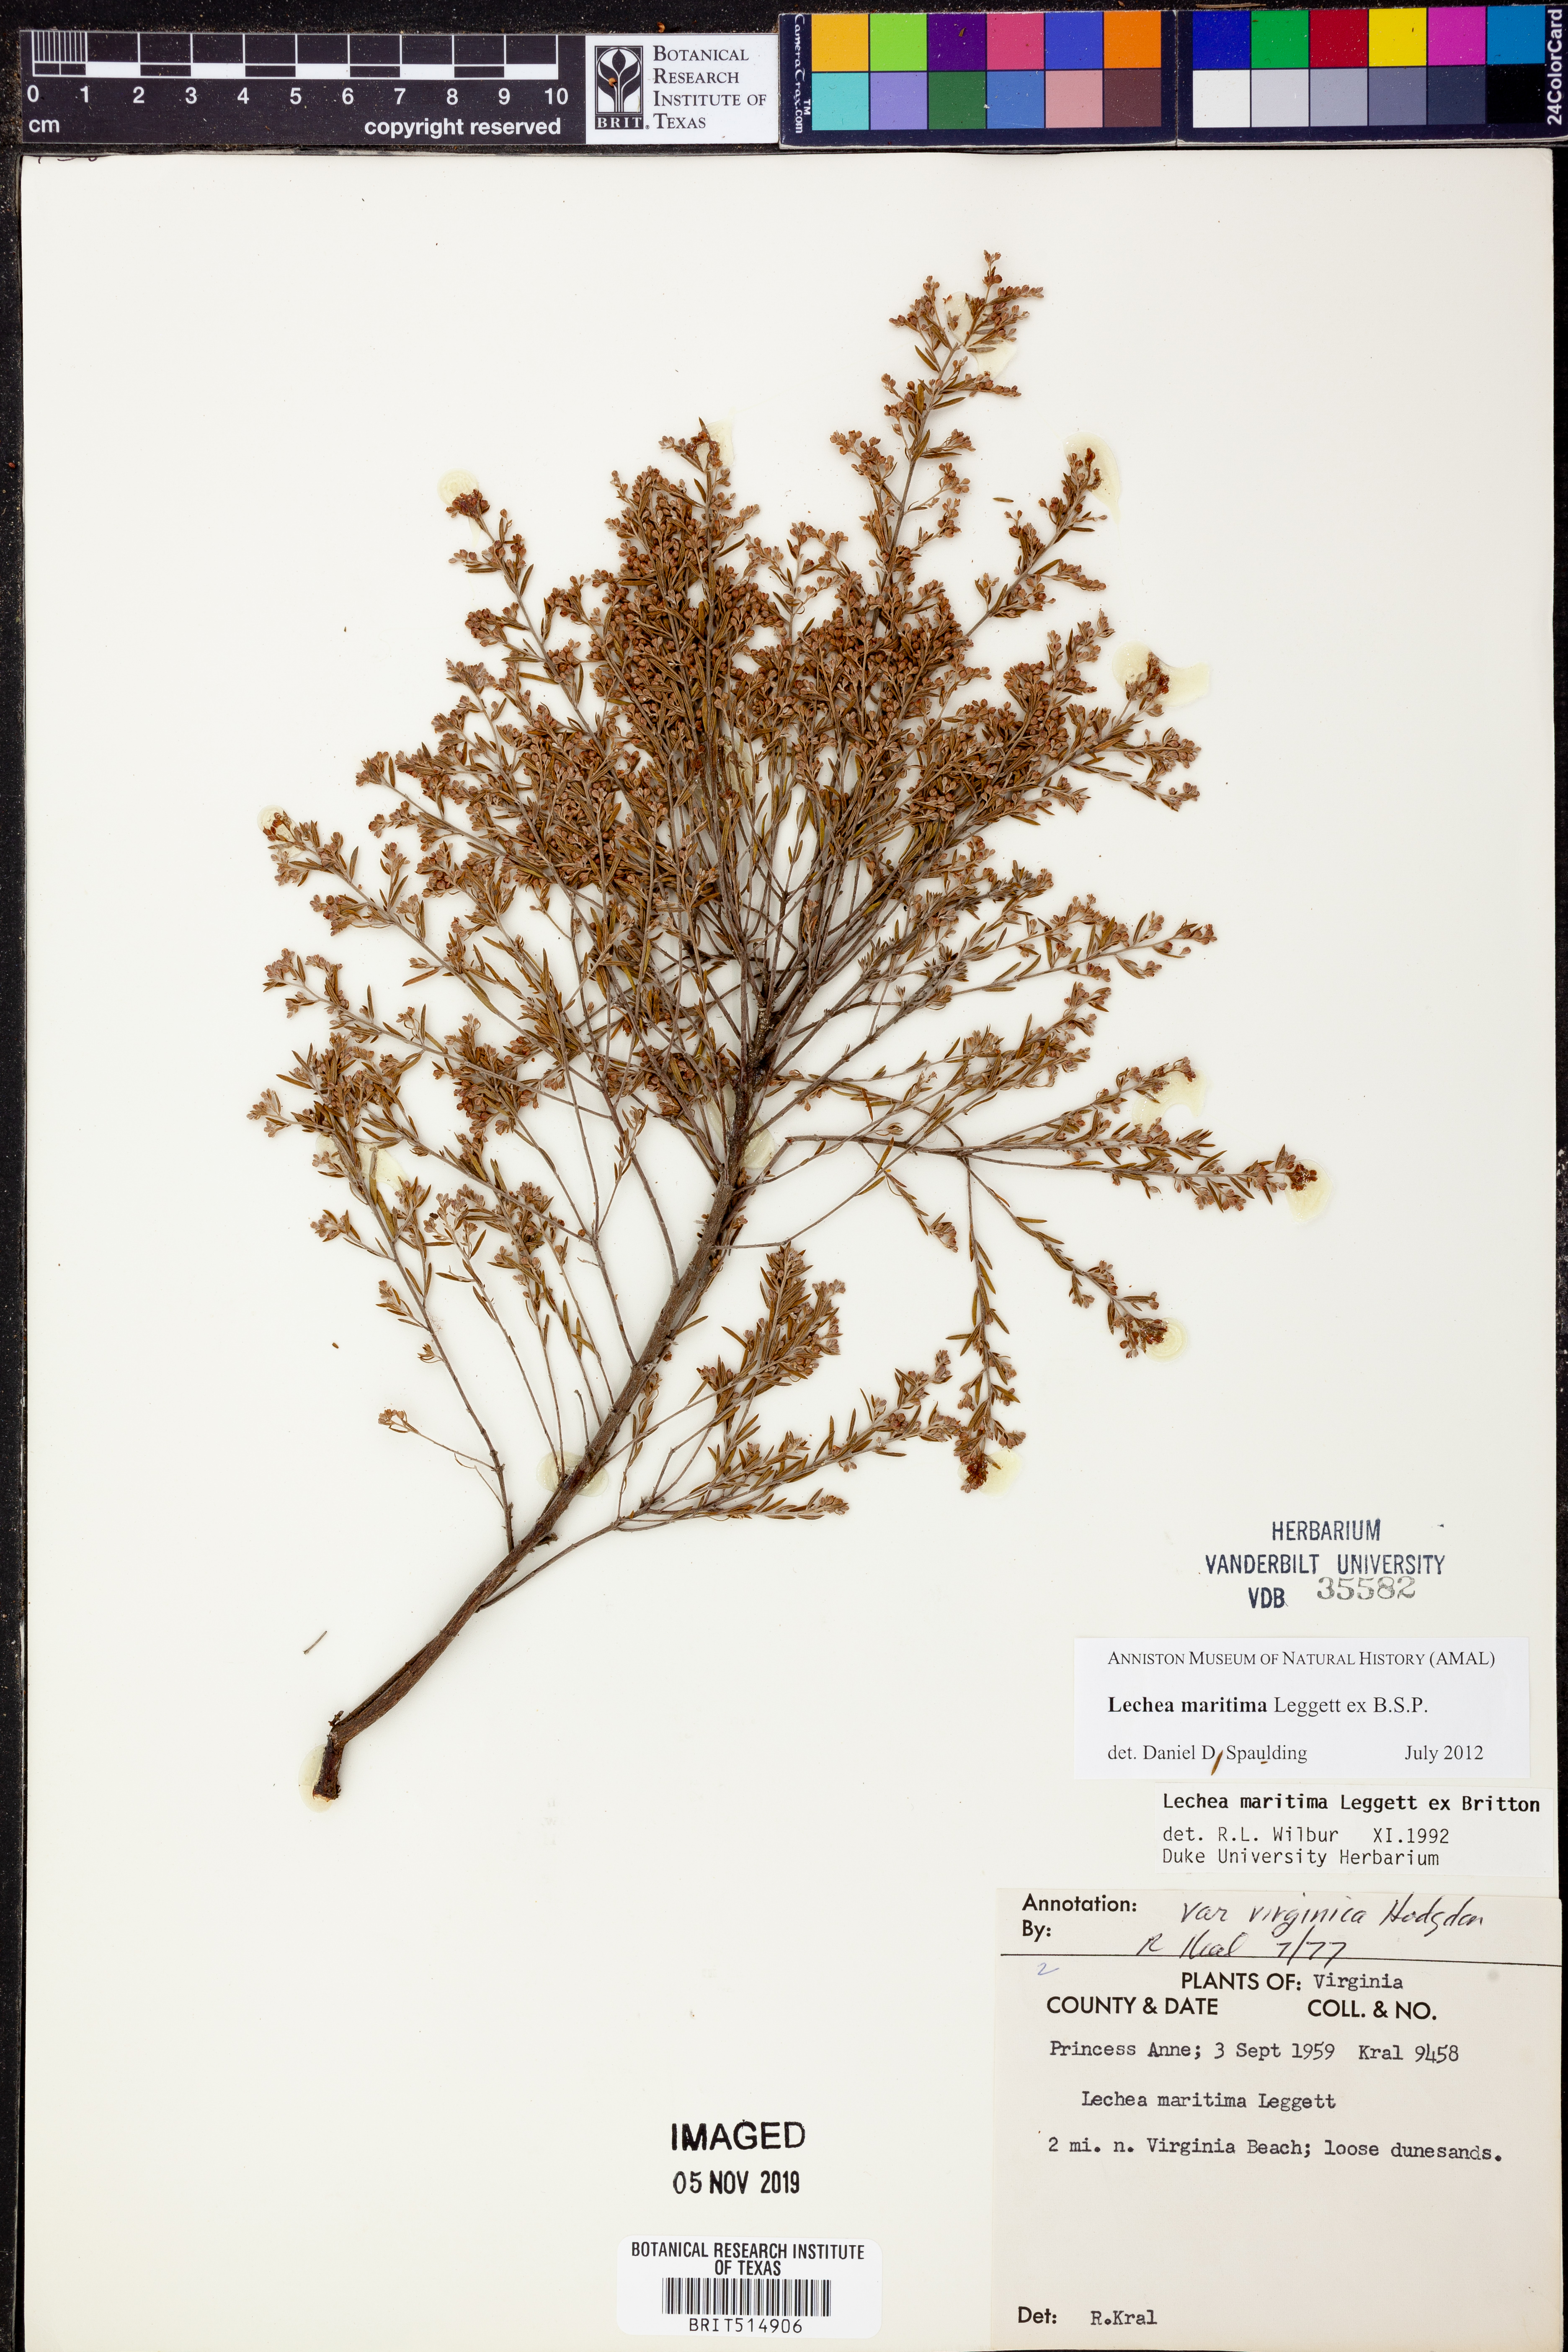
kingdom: Plantae
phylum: Tracheophyta
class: Magnoliopsida
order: Malvales
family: Cistaceae
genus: Lechea
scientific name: Lechea maritima
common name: Beach pinweed
